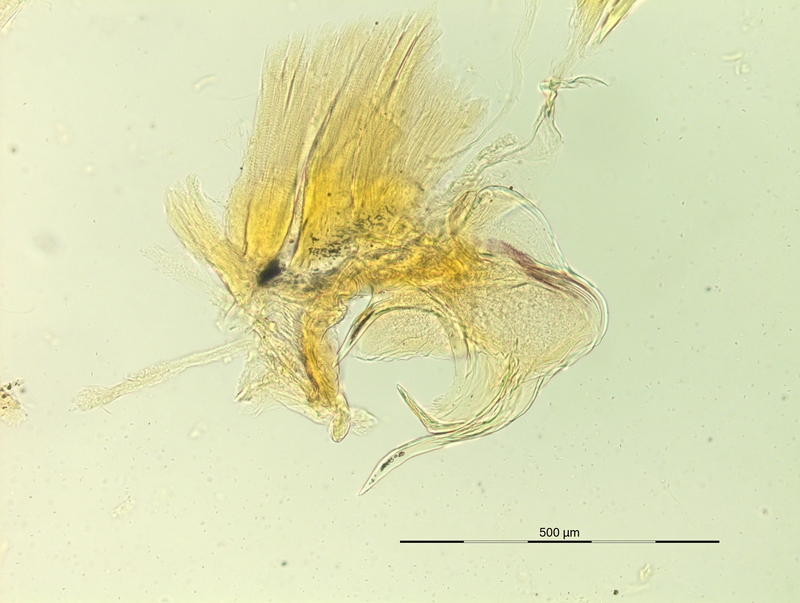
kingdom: Animalia
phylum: Arthropoda
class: Diplopoda
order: Chordeumatida
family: Craspedosomatidae
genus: Rhymogona
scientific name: Rhymogona wehrana
